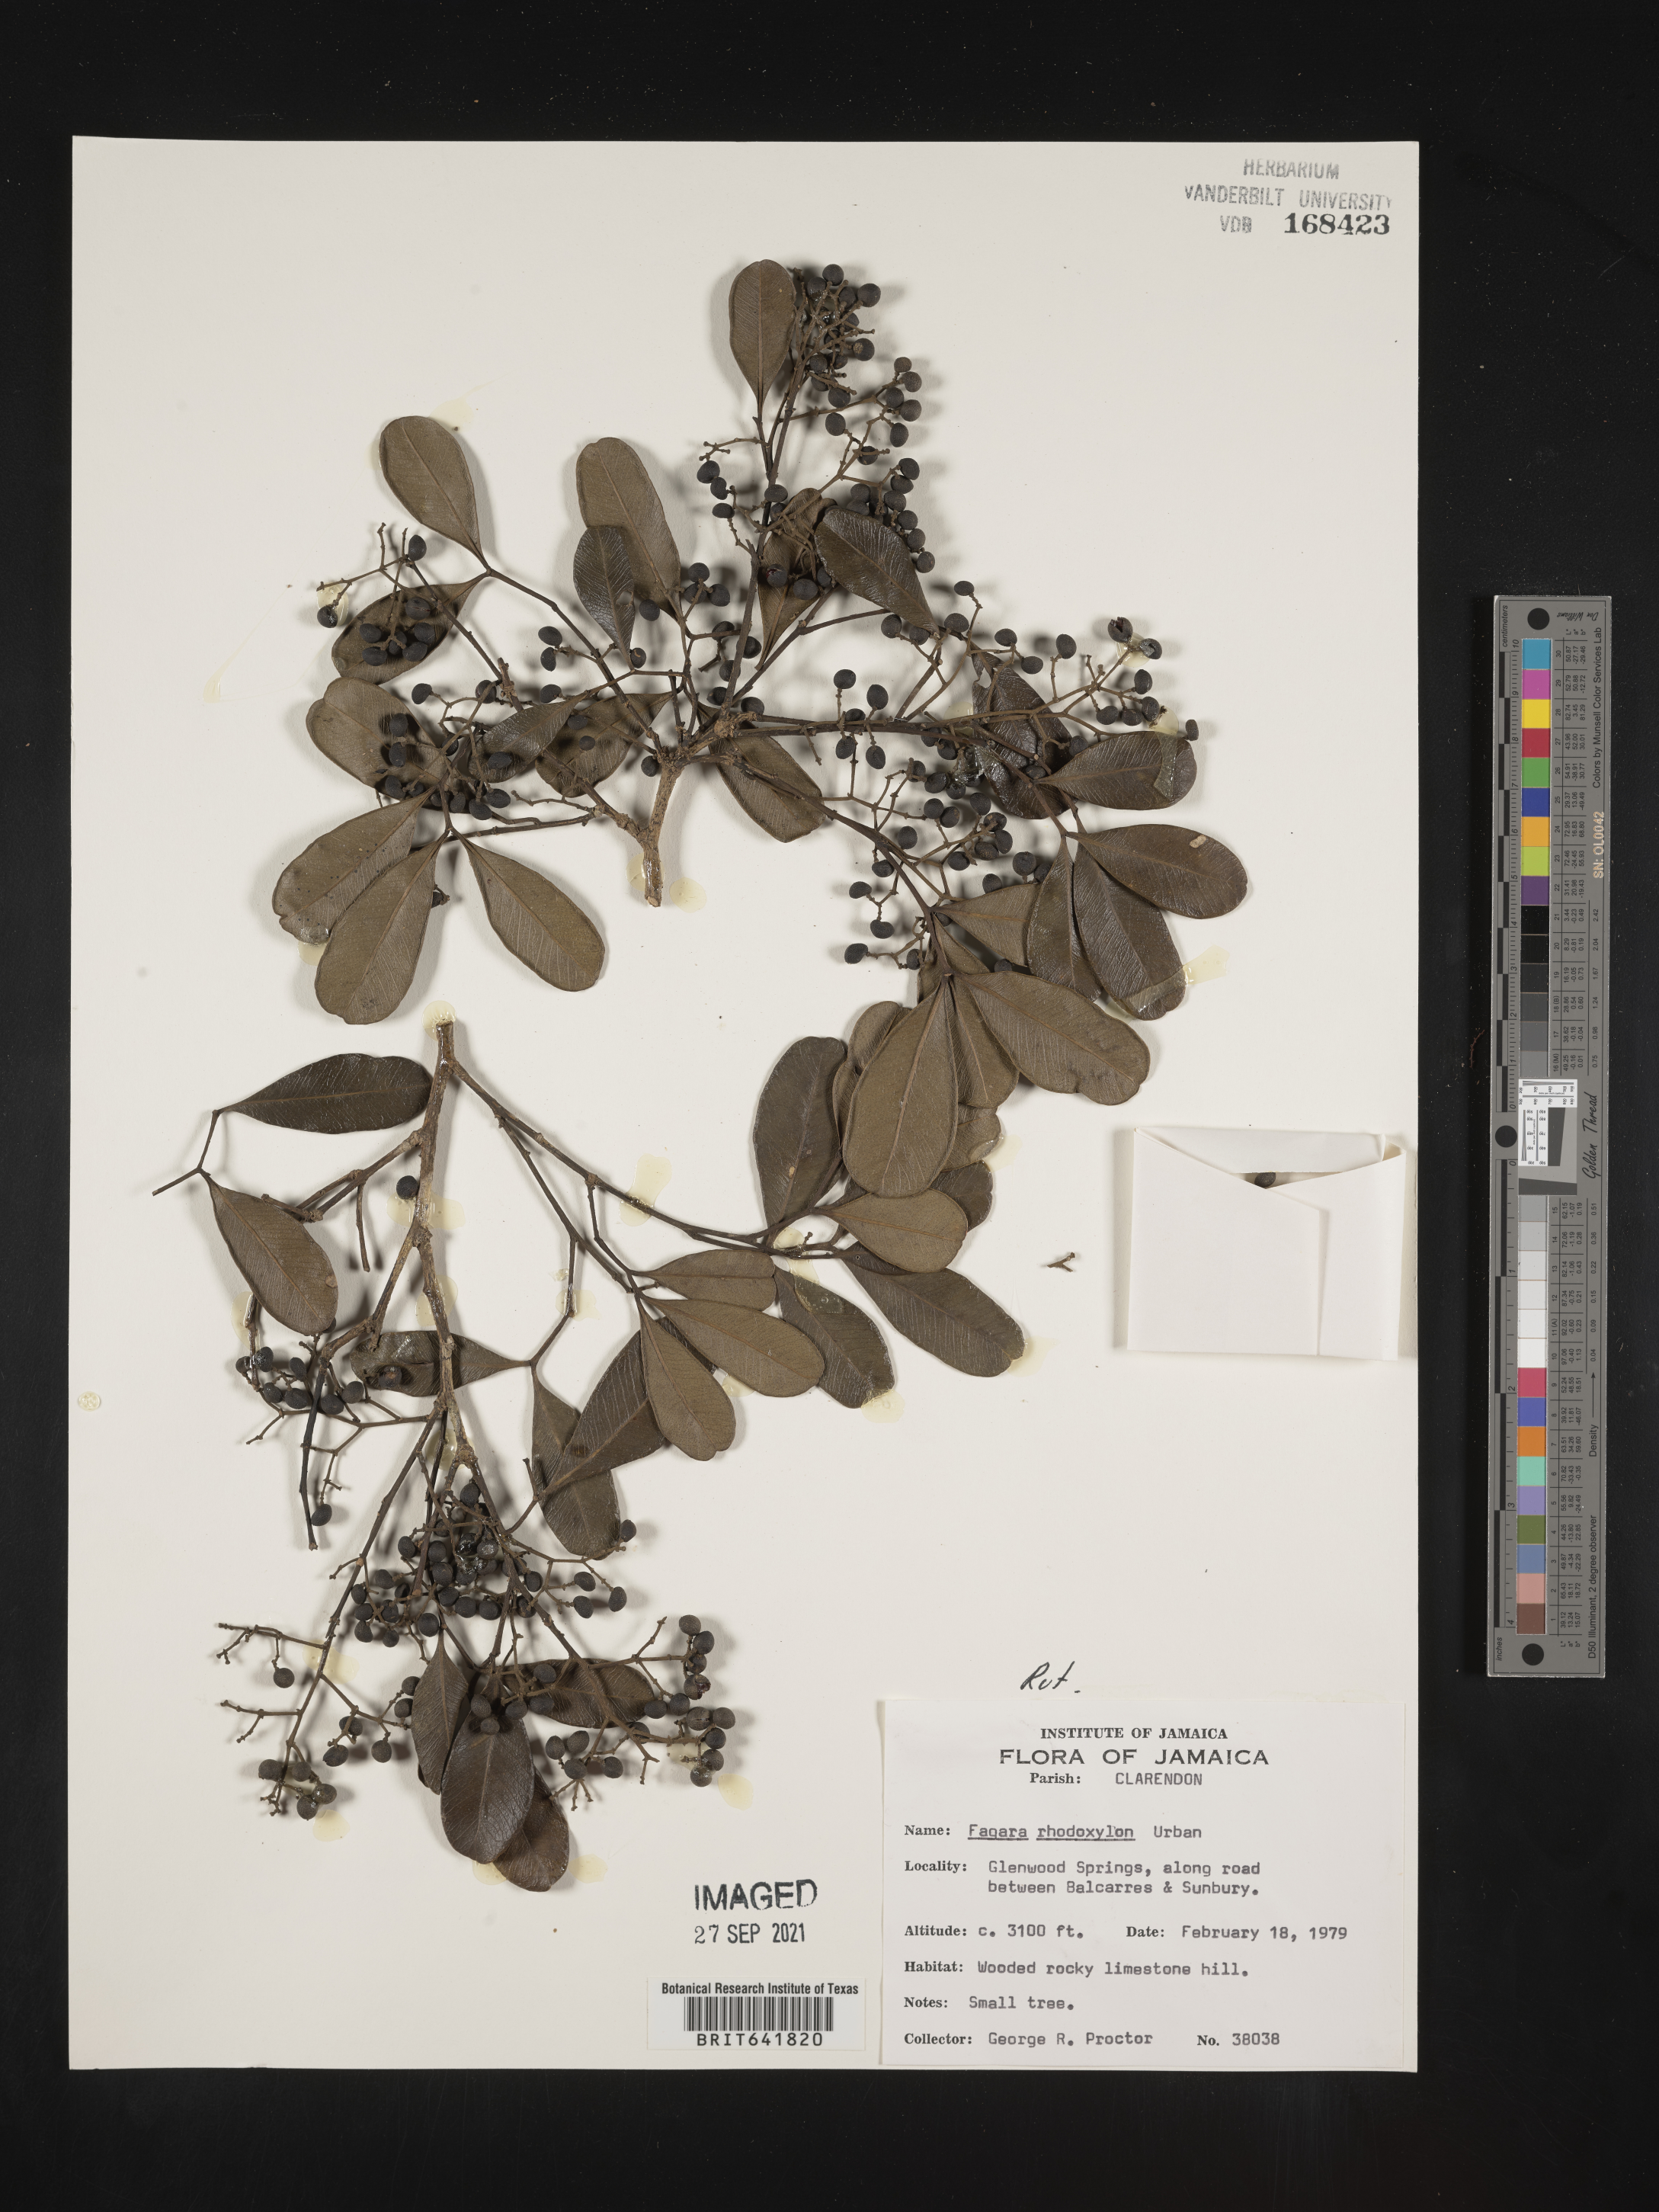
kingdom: Plantae
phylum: Tracheophyta
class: Magnoliopsida
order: Sapindales
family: Rutaceae
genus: Zanthoxylum
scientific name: Zanthoxylum
